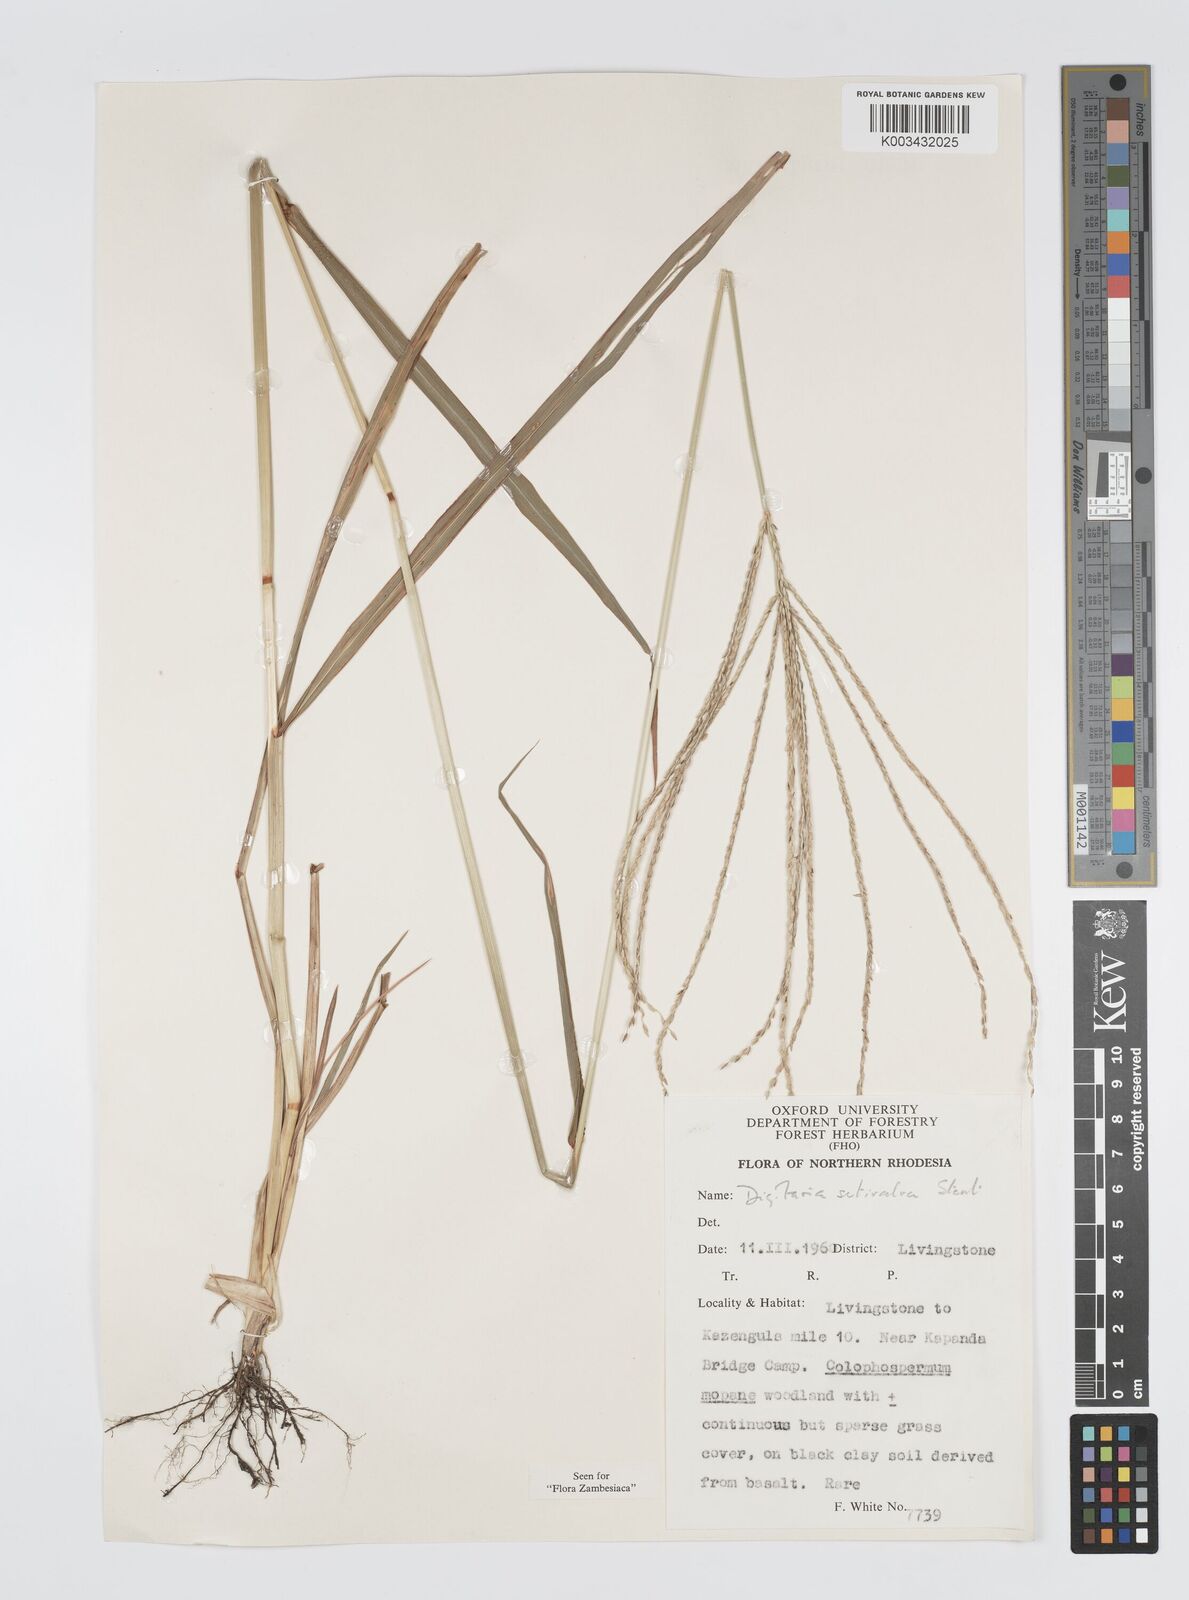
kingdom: Plantae
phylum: Tracheophyta
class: Liliopsida
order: Poales
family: Poaceae
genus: Digitaria
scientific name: Digitaria milanjiana
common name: Madagascar crabgrass
